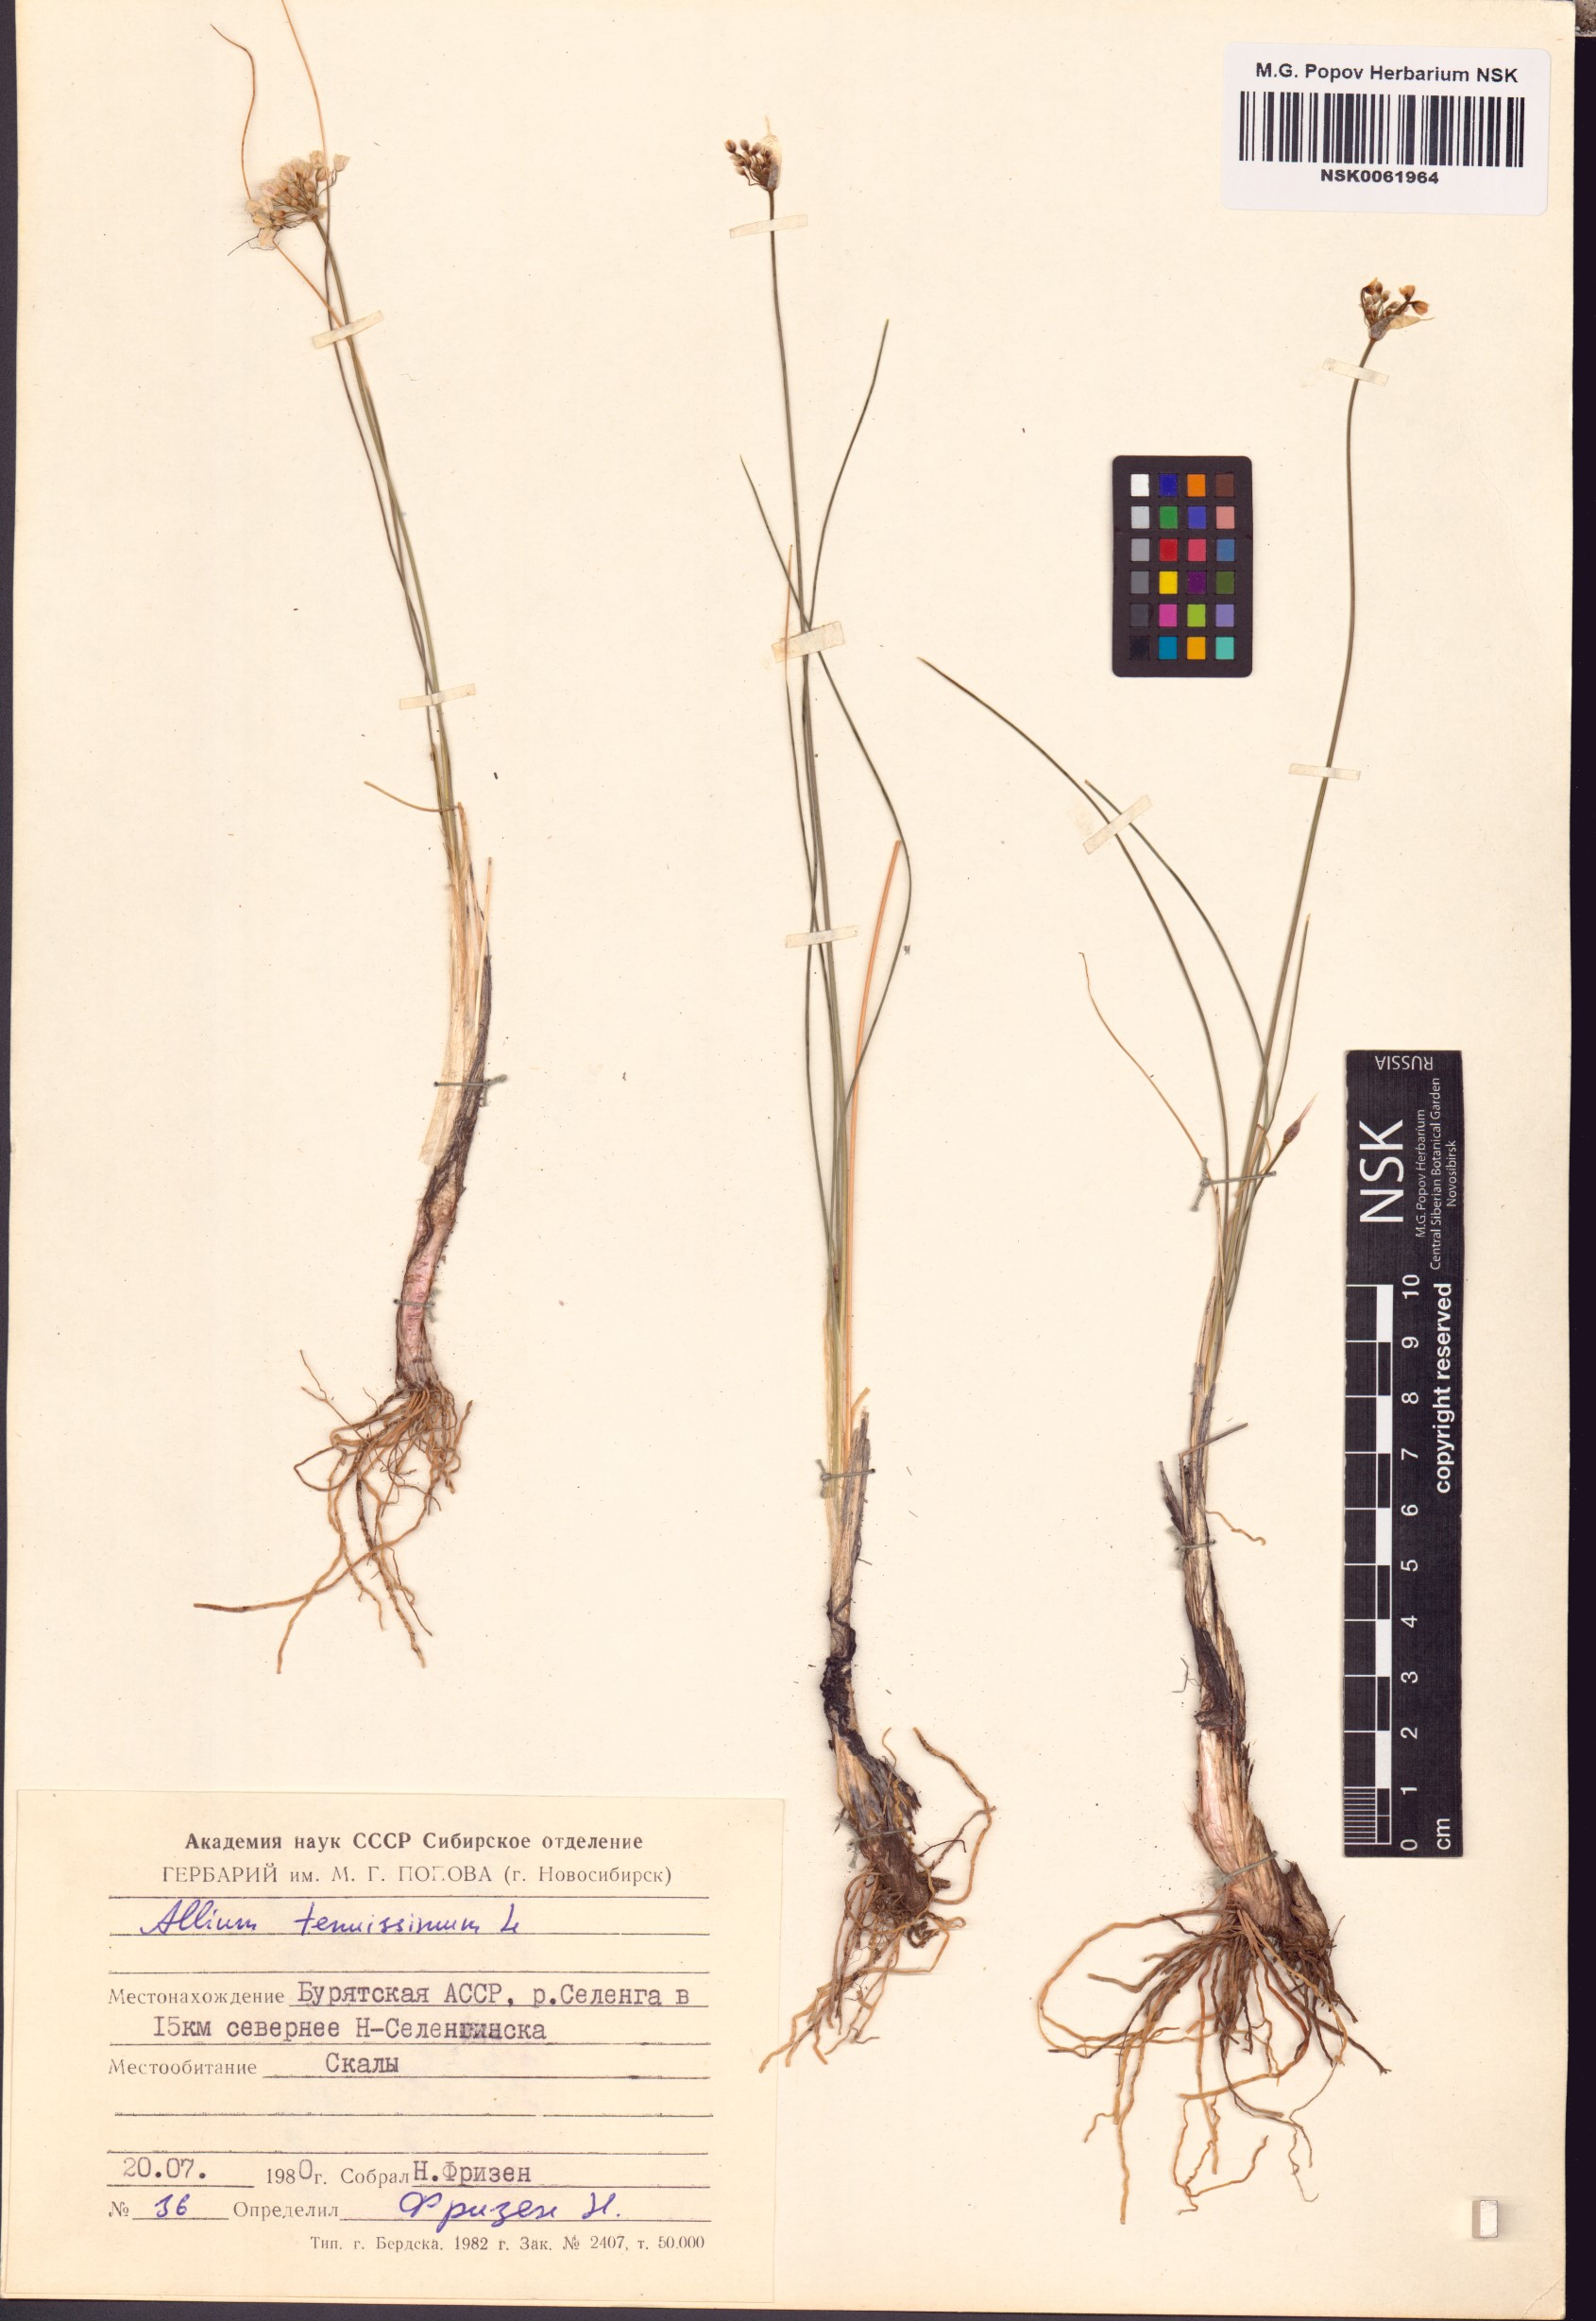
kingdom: Plantae
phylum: Tracheophyta
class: Liliopsida
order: Asparagales
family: Amaryllidaceae
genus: Allium
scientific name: Allium tenuissimum
